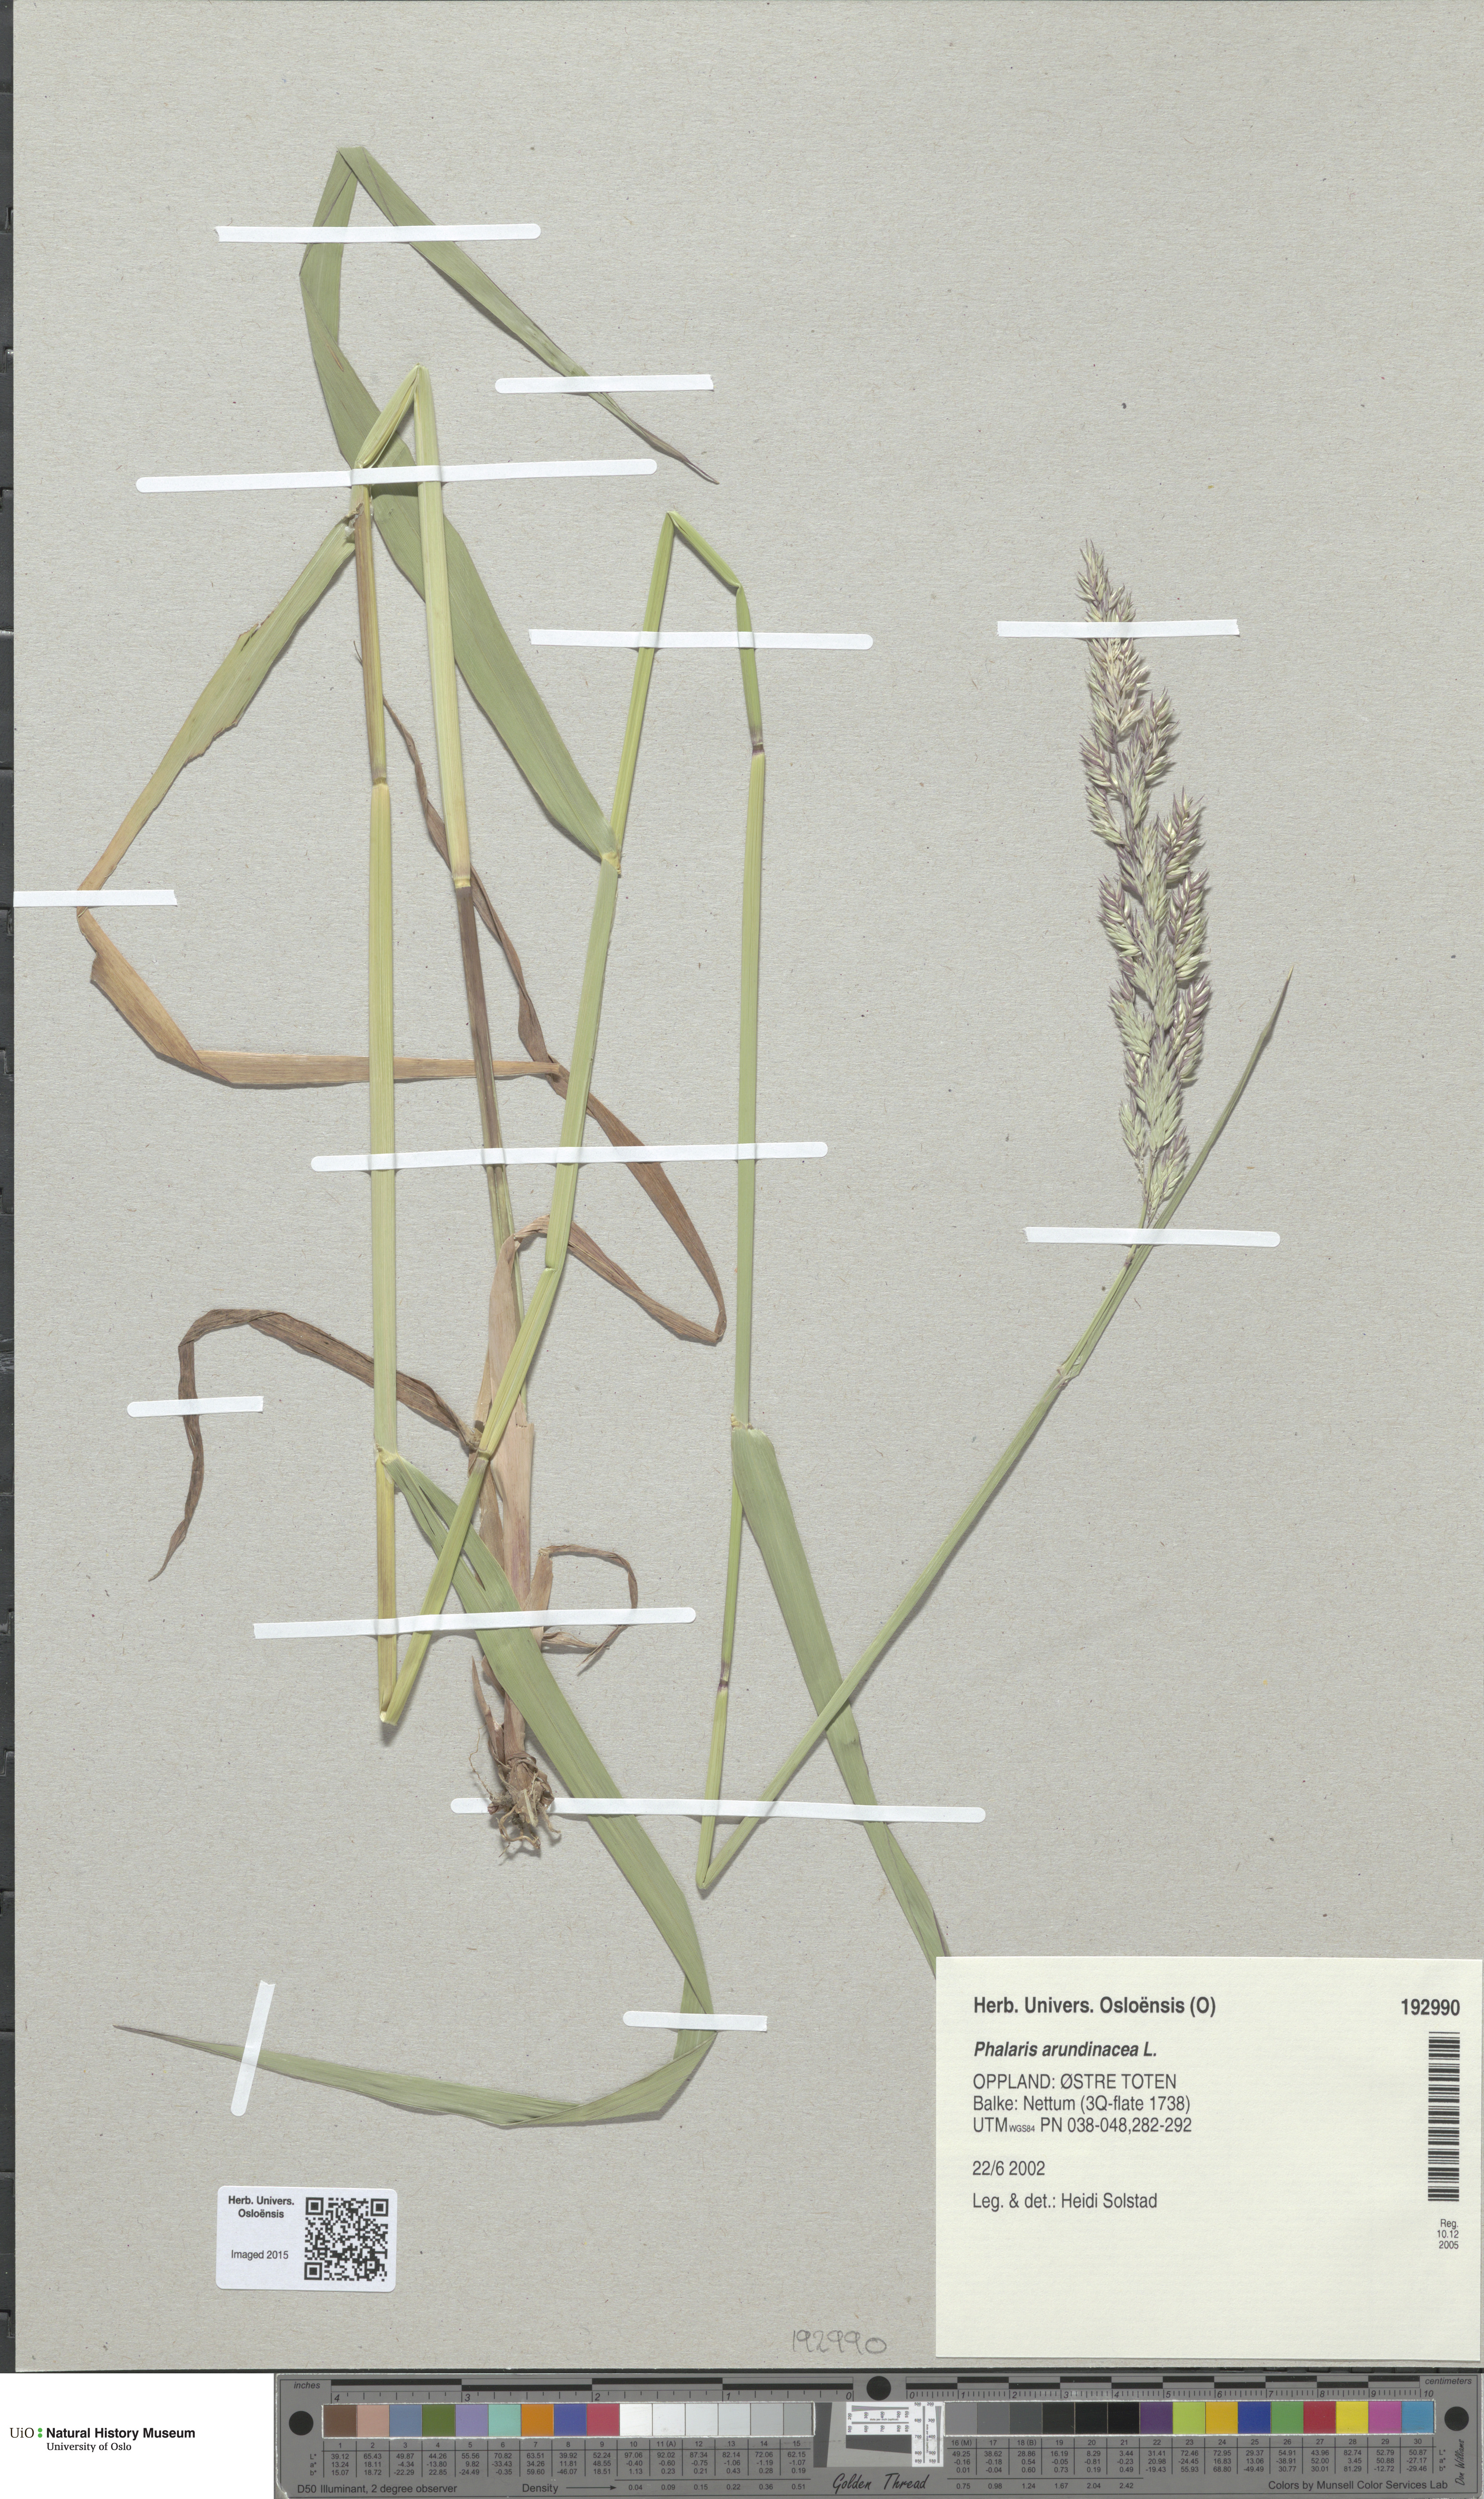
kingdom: Plantae
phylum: Tracheophyta
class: Liliopsida
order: Poales
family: Poaceae
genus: Phalaris
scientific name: Phalaris arundinacea
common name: Reed canary-grass
